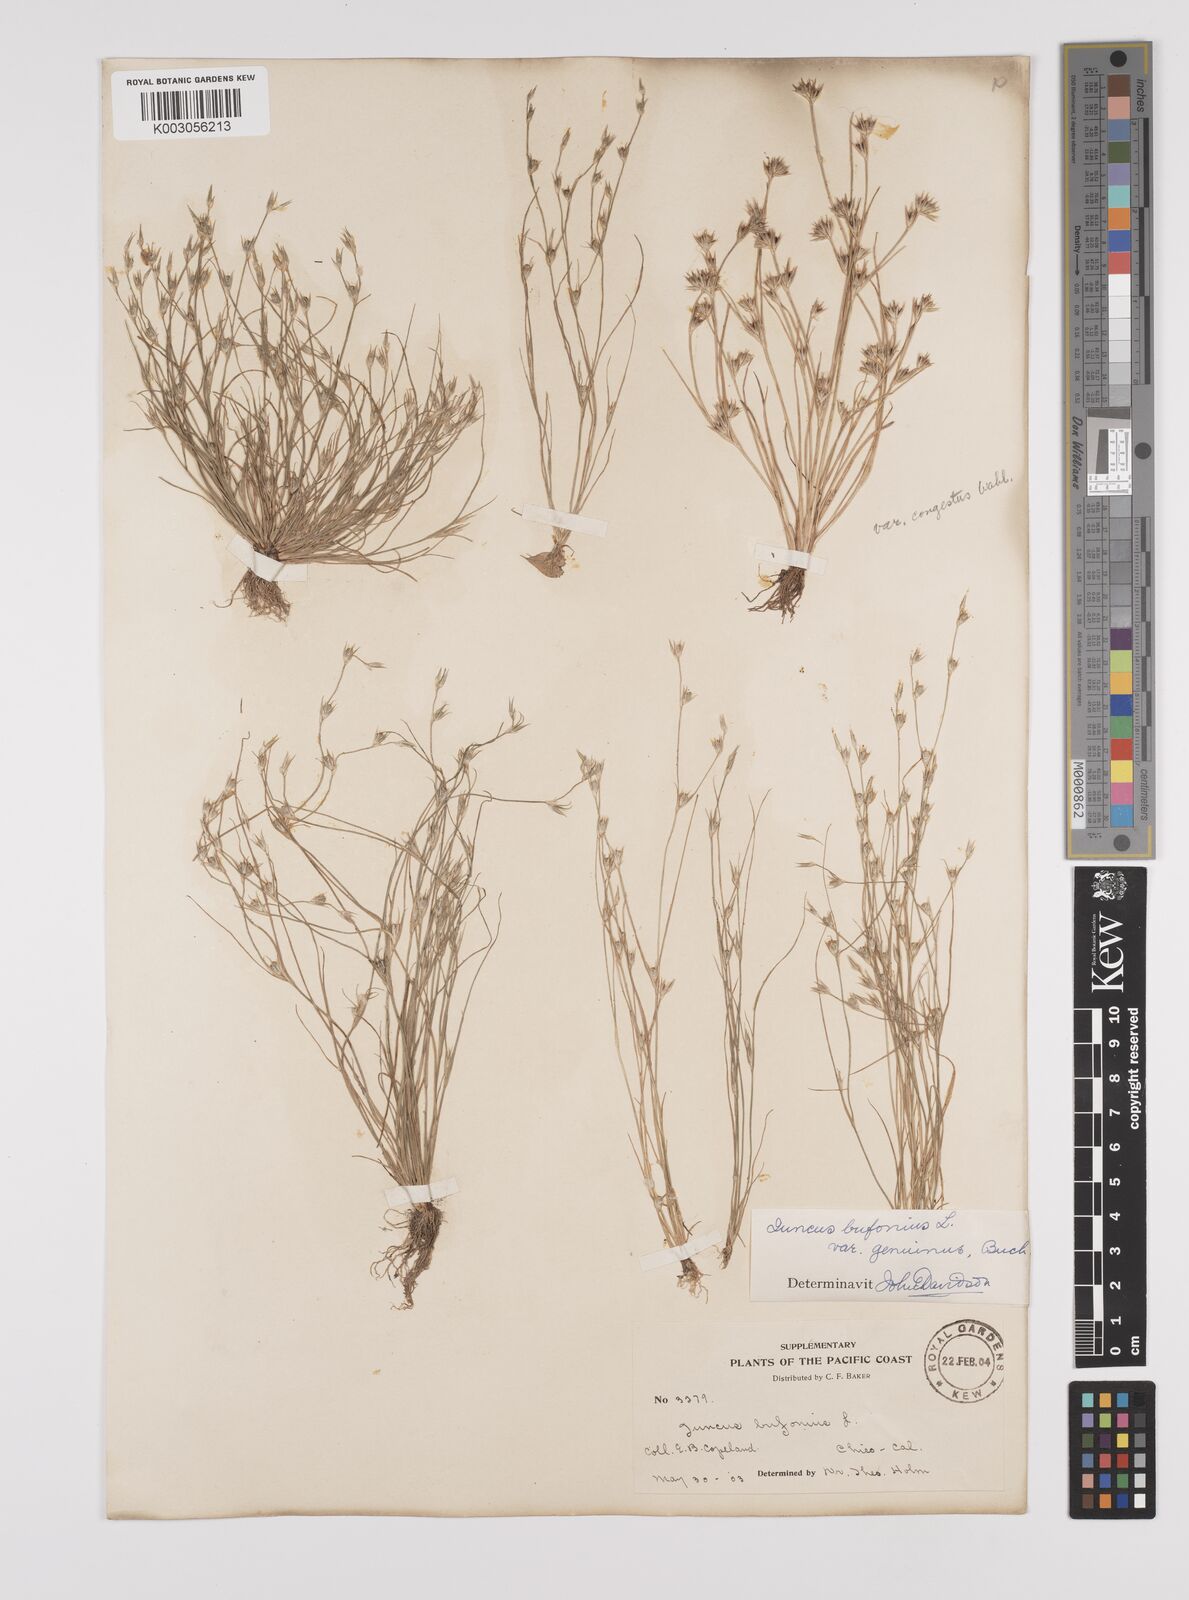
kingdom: Plantae
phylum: Tracheophyta
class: Liliopsida
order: Poales
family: Juncaceae
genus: Juncus
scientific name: Juncus bufonius
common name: Toad rush
